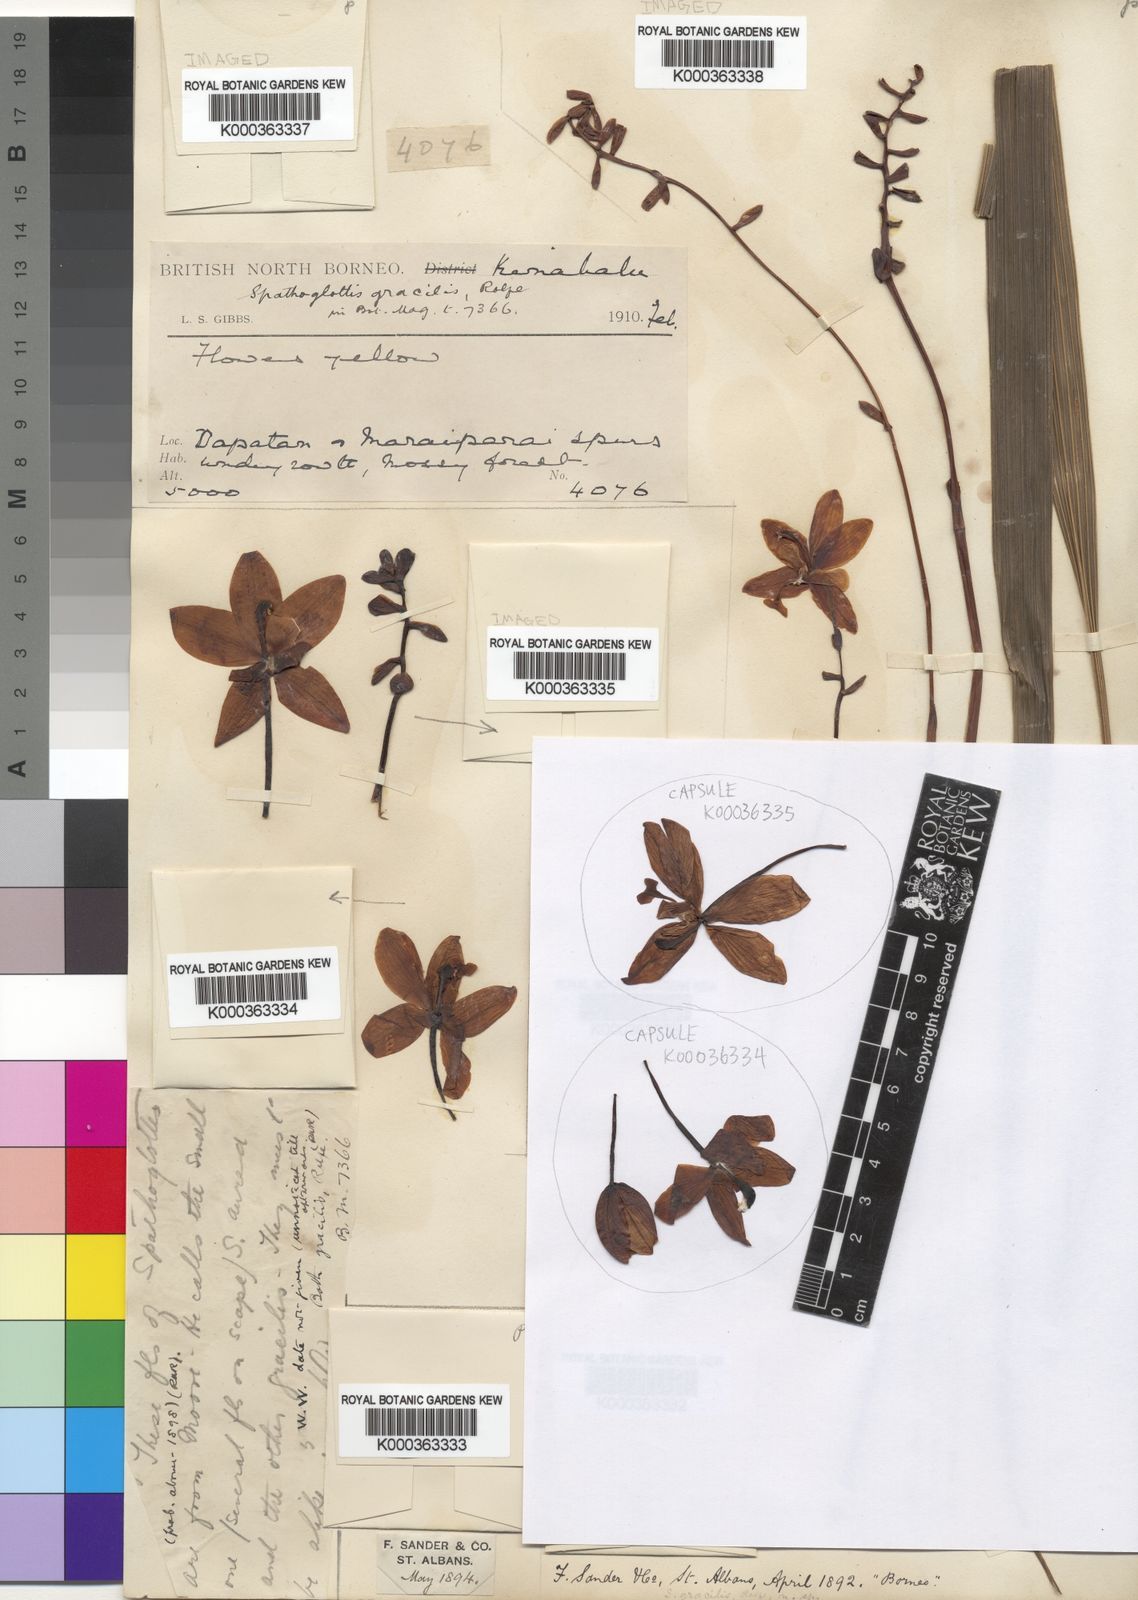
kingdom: Plantae
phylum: Tracheophyta
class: Liliopsida
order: Asparagales
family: Orchidaceae
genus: Spathoglottis
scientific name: Spathoglottis gracilis
